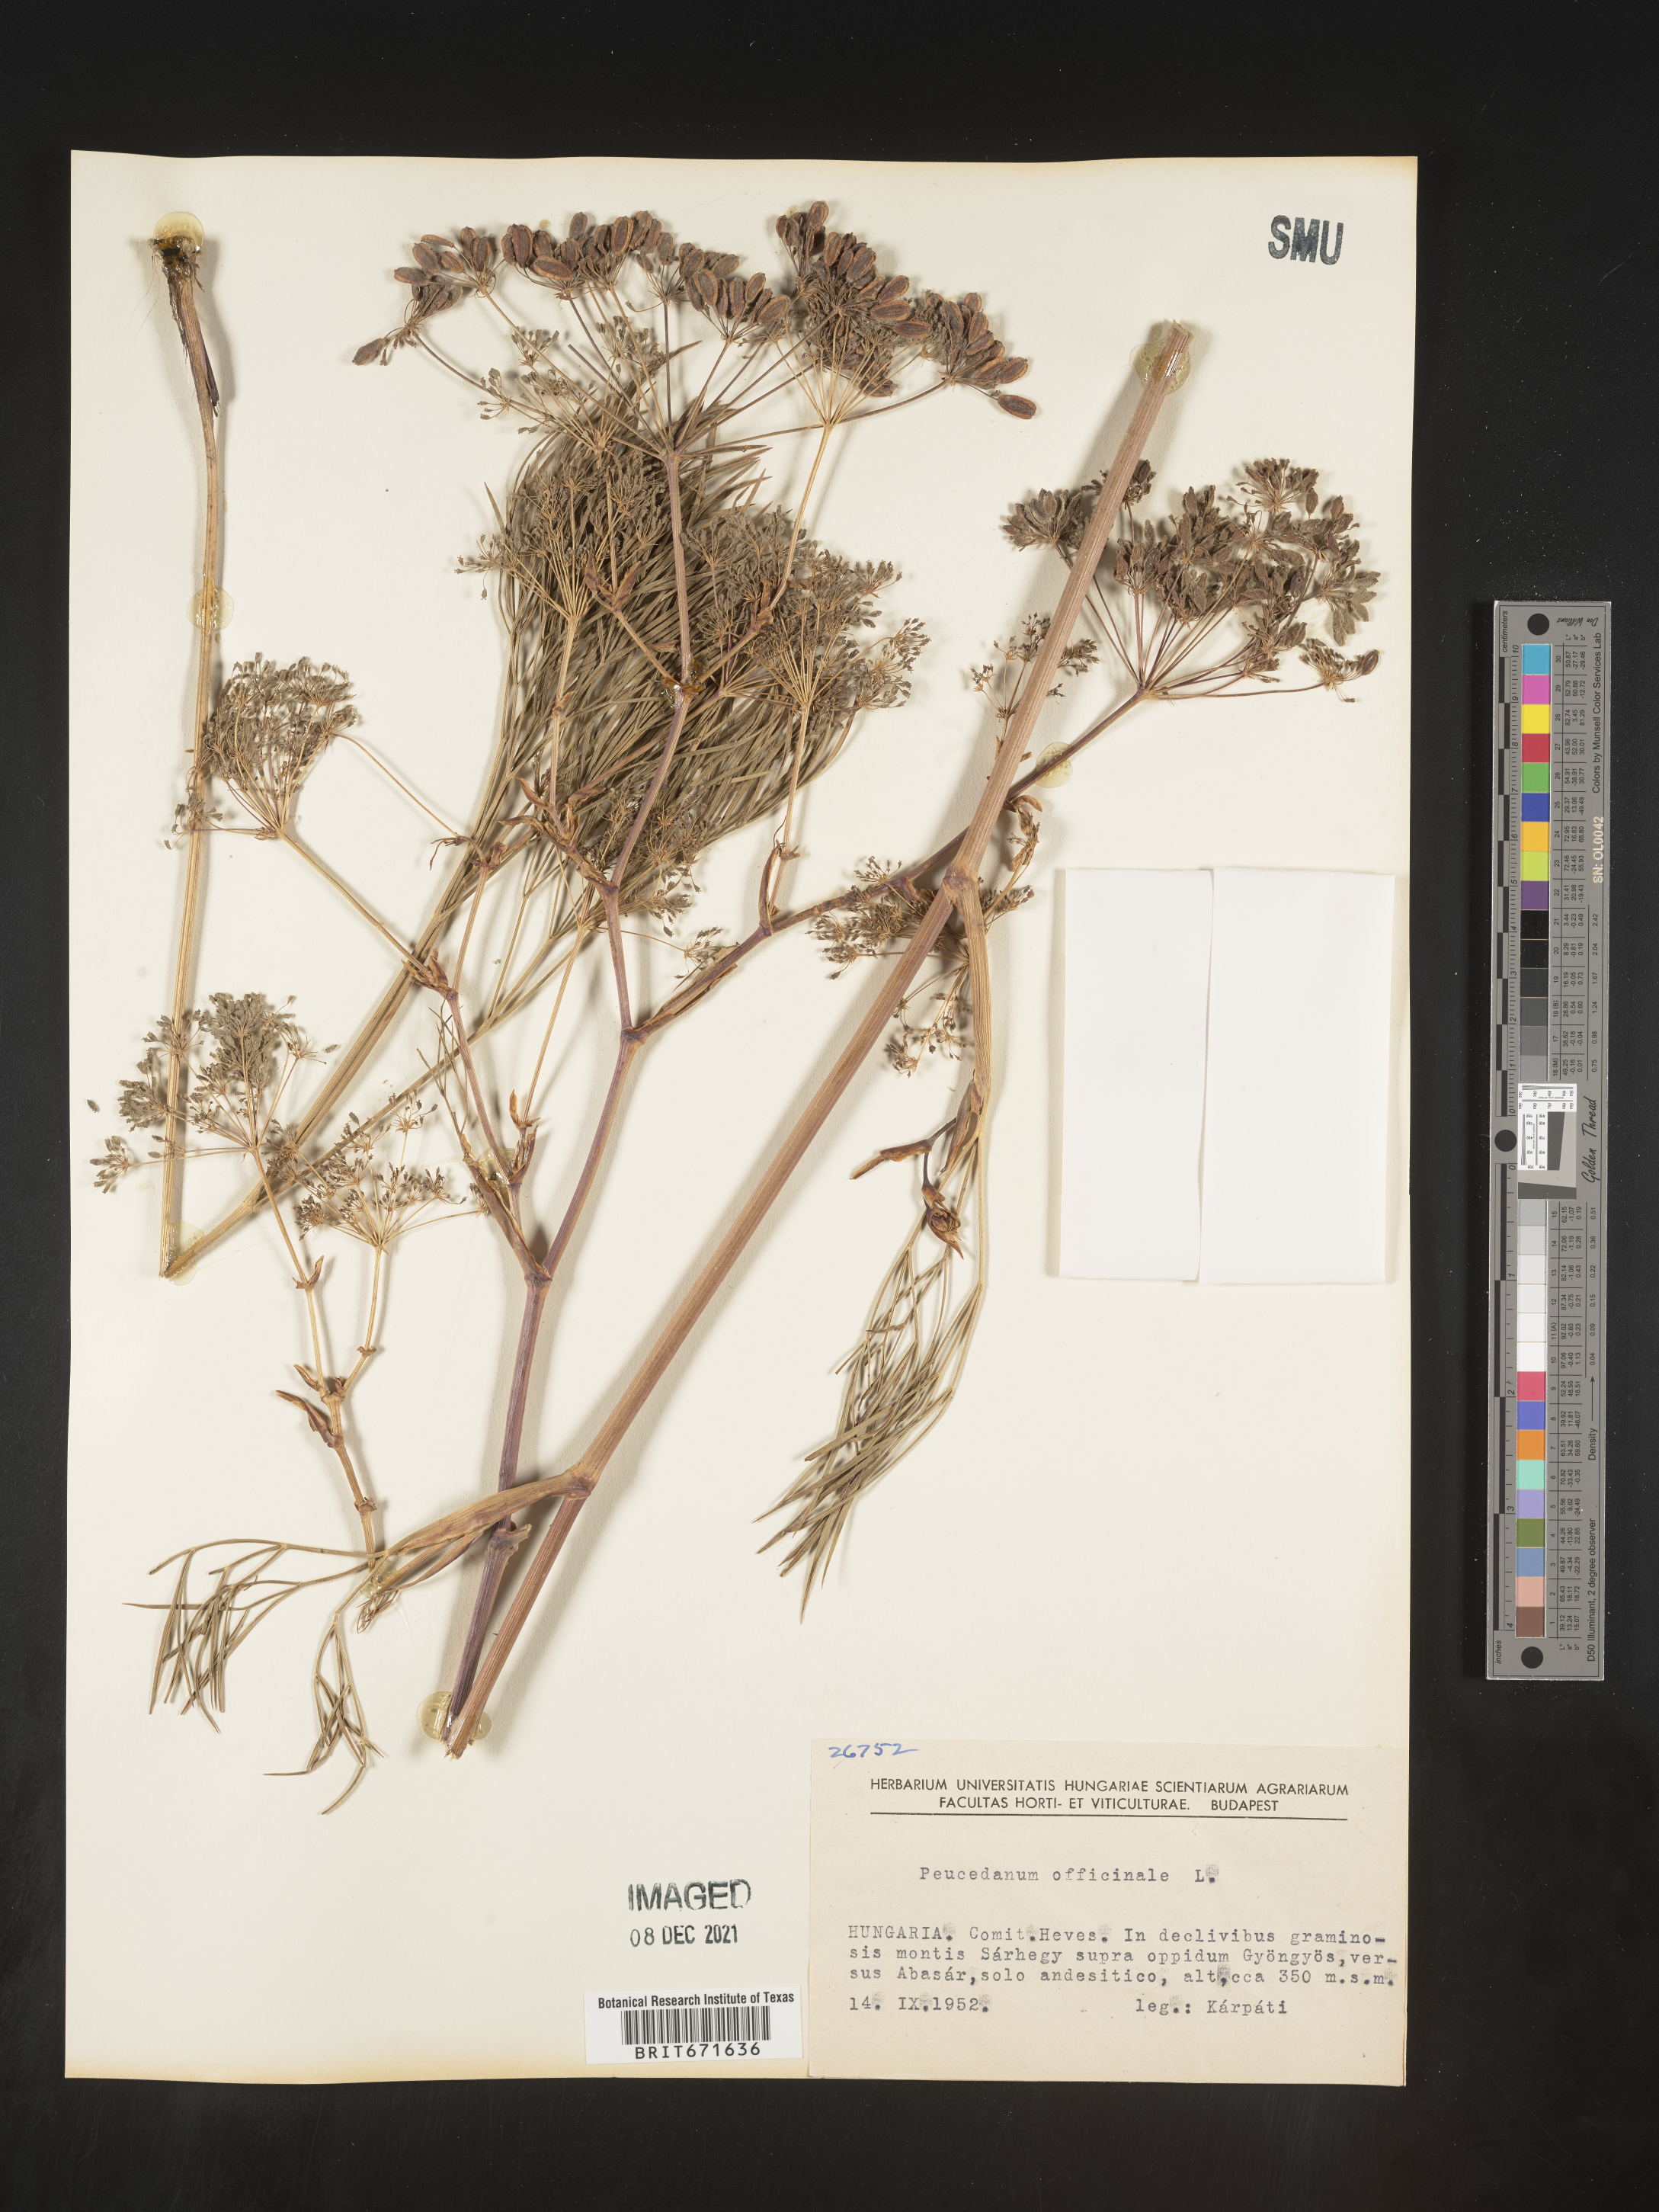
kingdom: Plantae
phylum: Tracheophyta
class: Magnoliopsida
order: Apiales
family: Apiaceae
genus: Peucedanum
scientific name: Peucedanum
